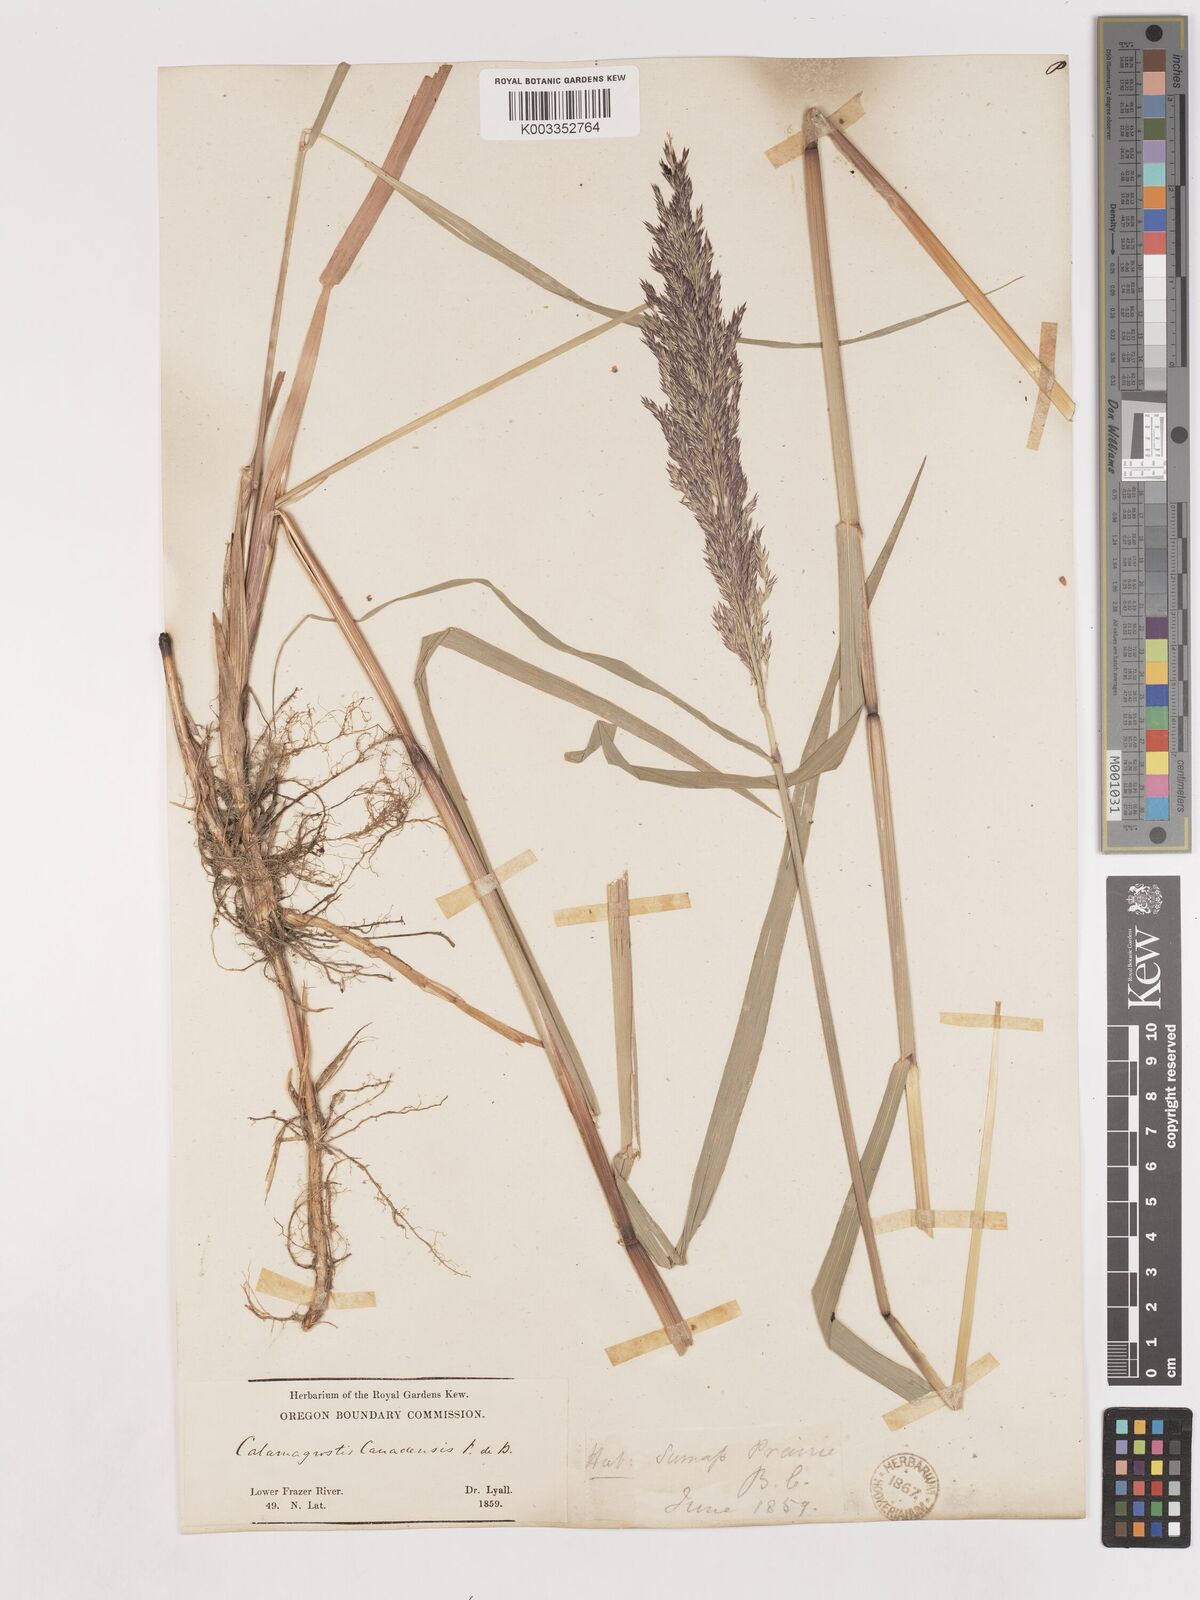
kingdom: Plantae
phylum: Tracheophyta
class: Liliopsida
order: Poales
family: Poaceae
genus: Calamagrostis
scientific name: Calamagrostis canadensis
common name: Canada bluejoint
